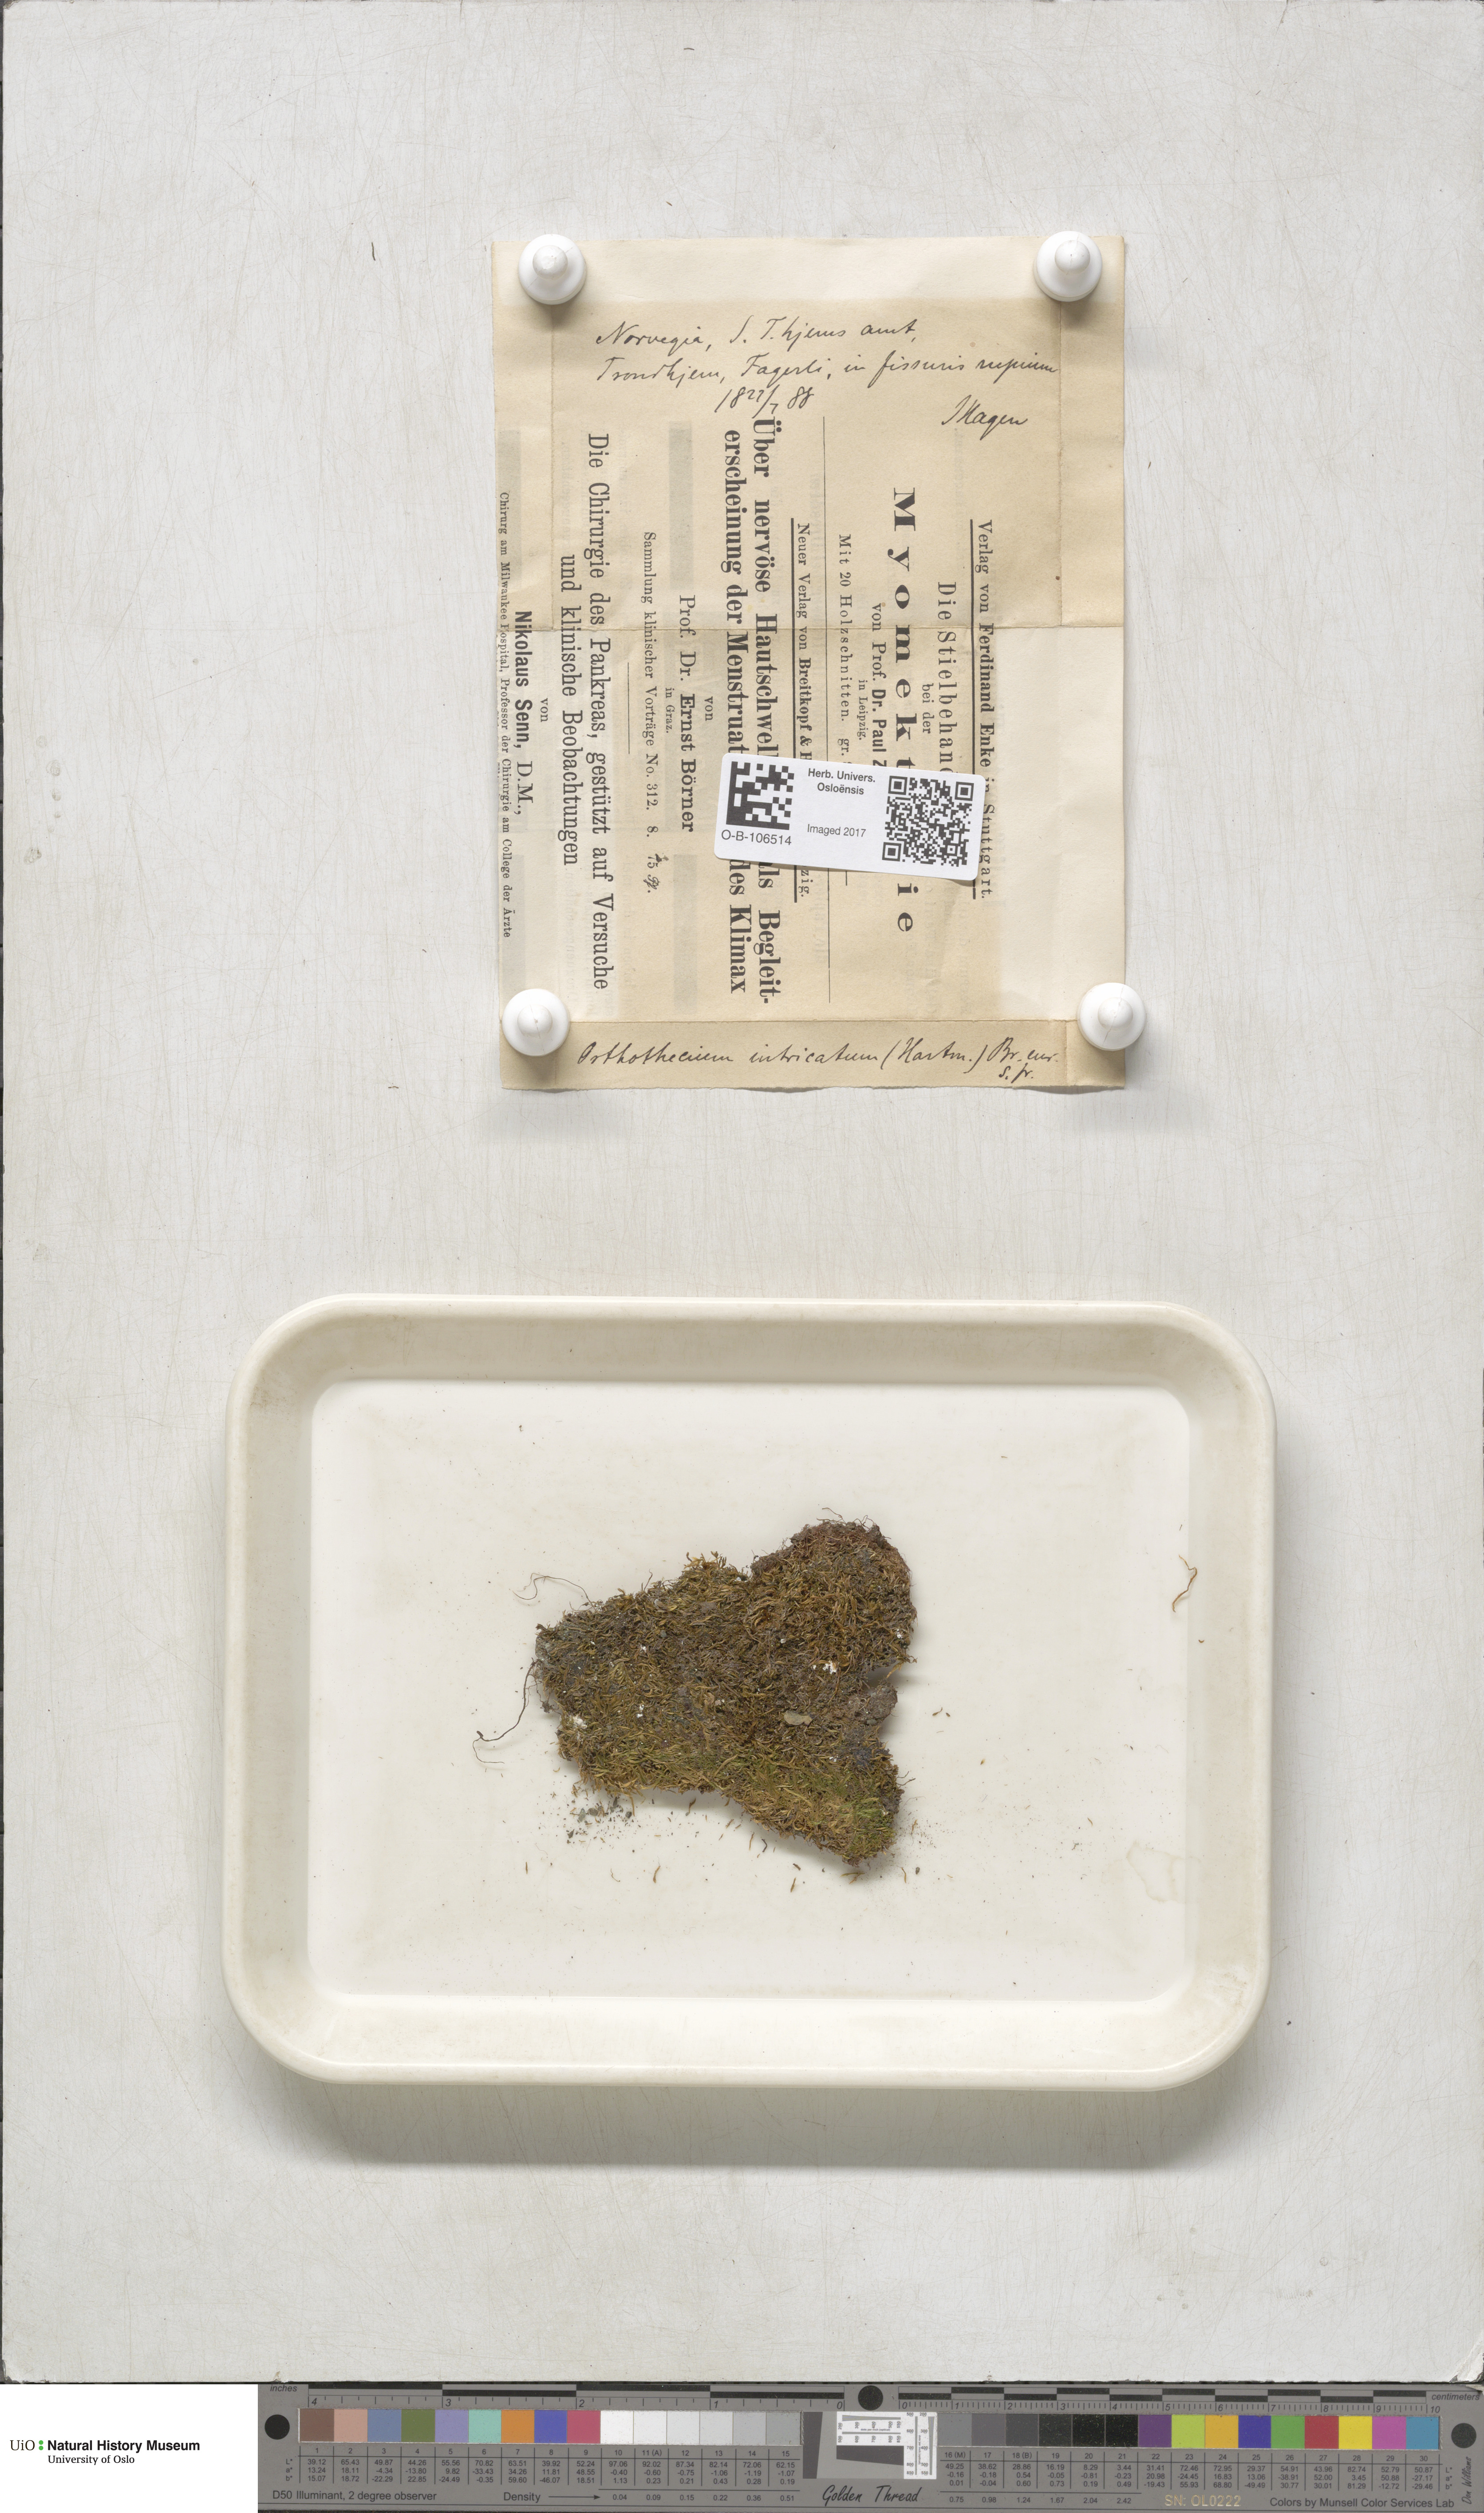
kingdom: Plantae
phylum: Bryophyta
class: Bryopsida
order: Hypnales
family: Plagiotheciaceae
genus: Orthothecium
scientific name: Orthothecium intricatum
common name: Fine-leaved erect-capsule moss
